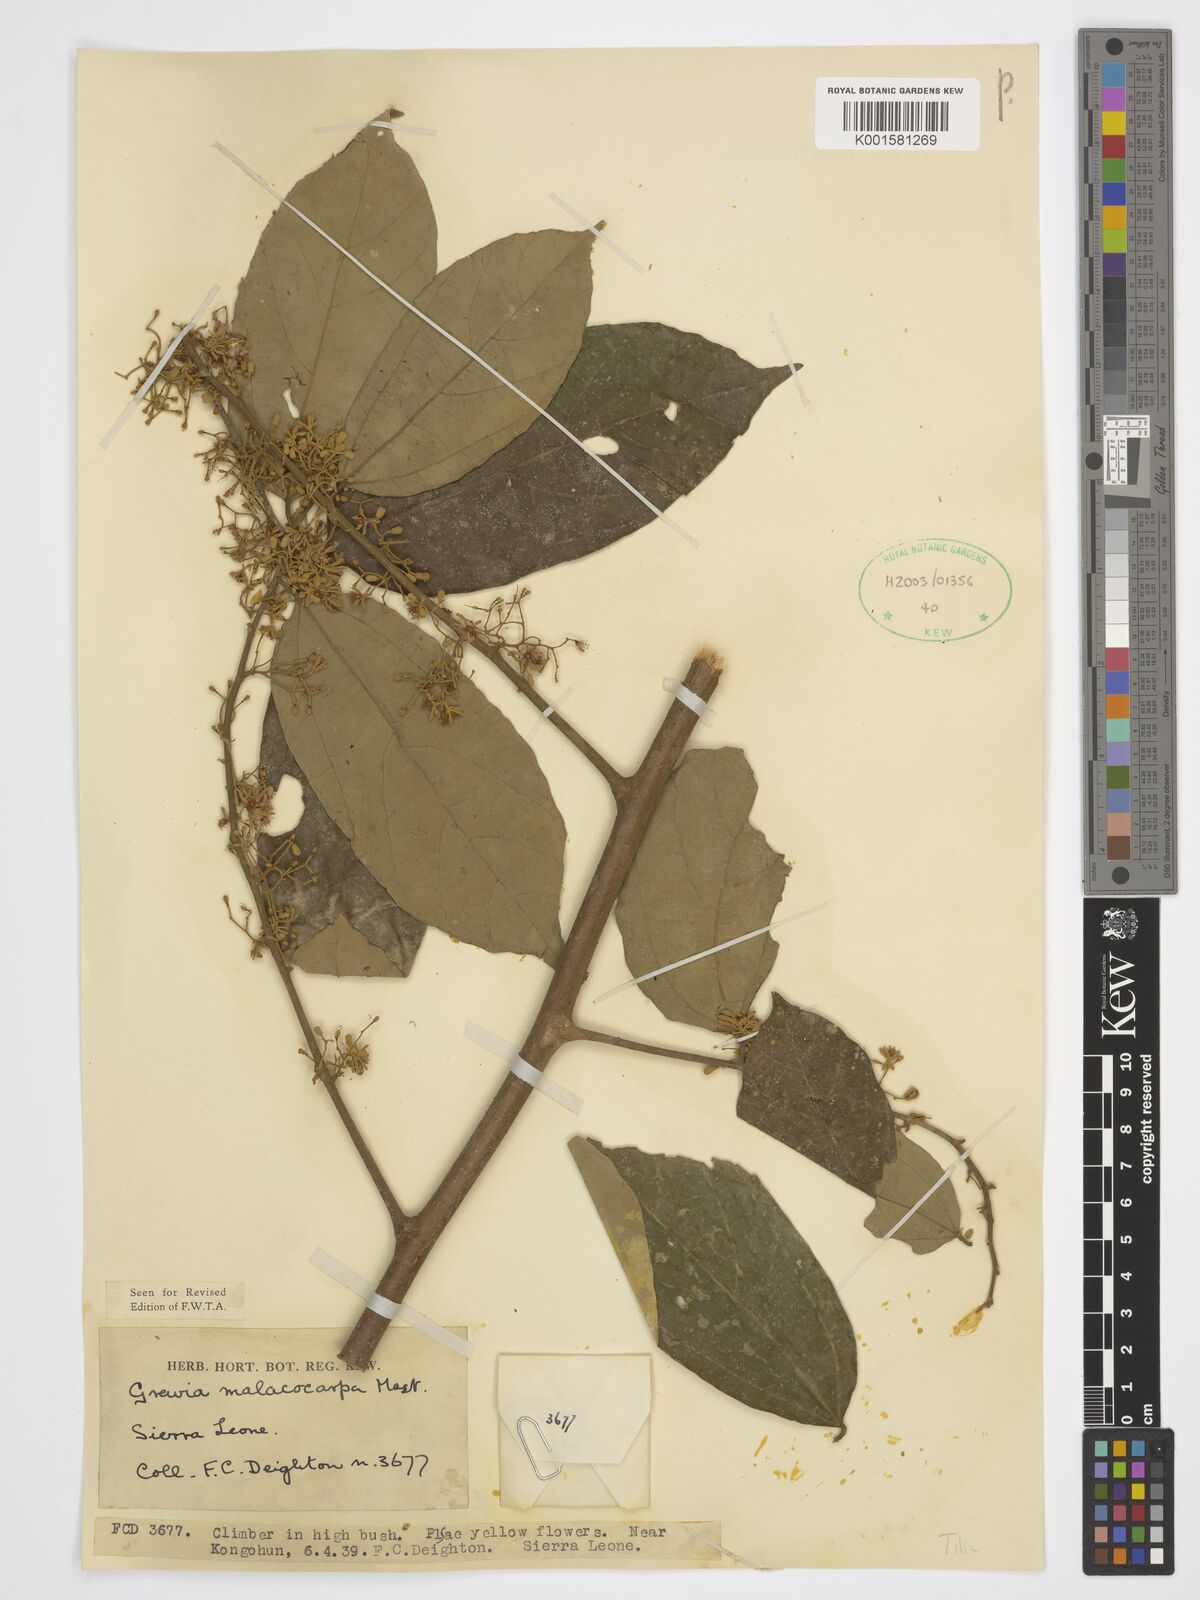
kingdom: Plantae
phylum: Tracheophyta
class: Magnoliopsida
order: Malvales
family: Malvaceae
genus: Microcos
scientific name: Microcos malacocarpa
